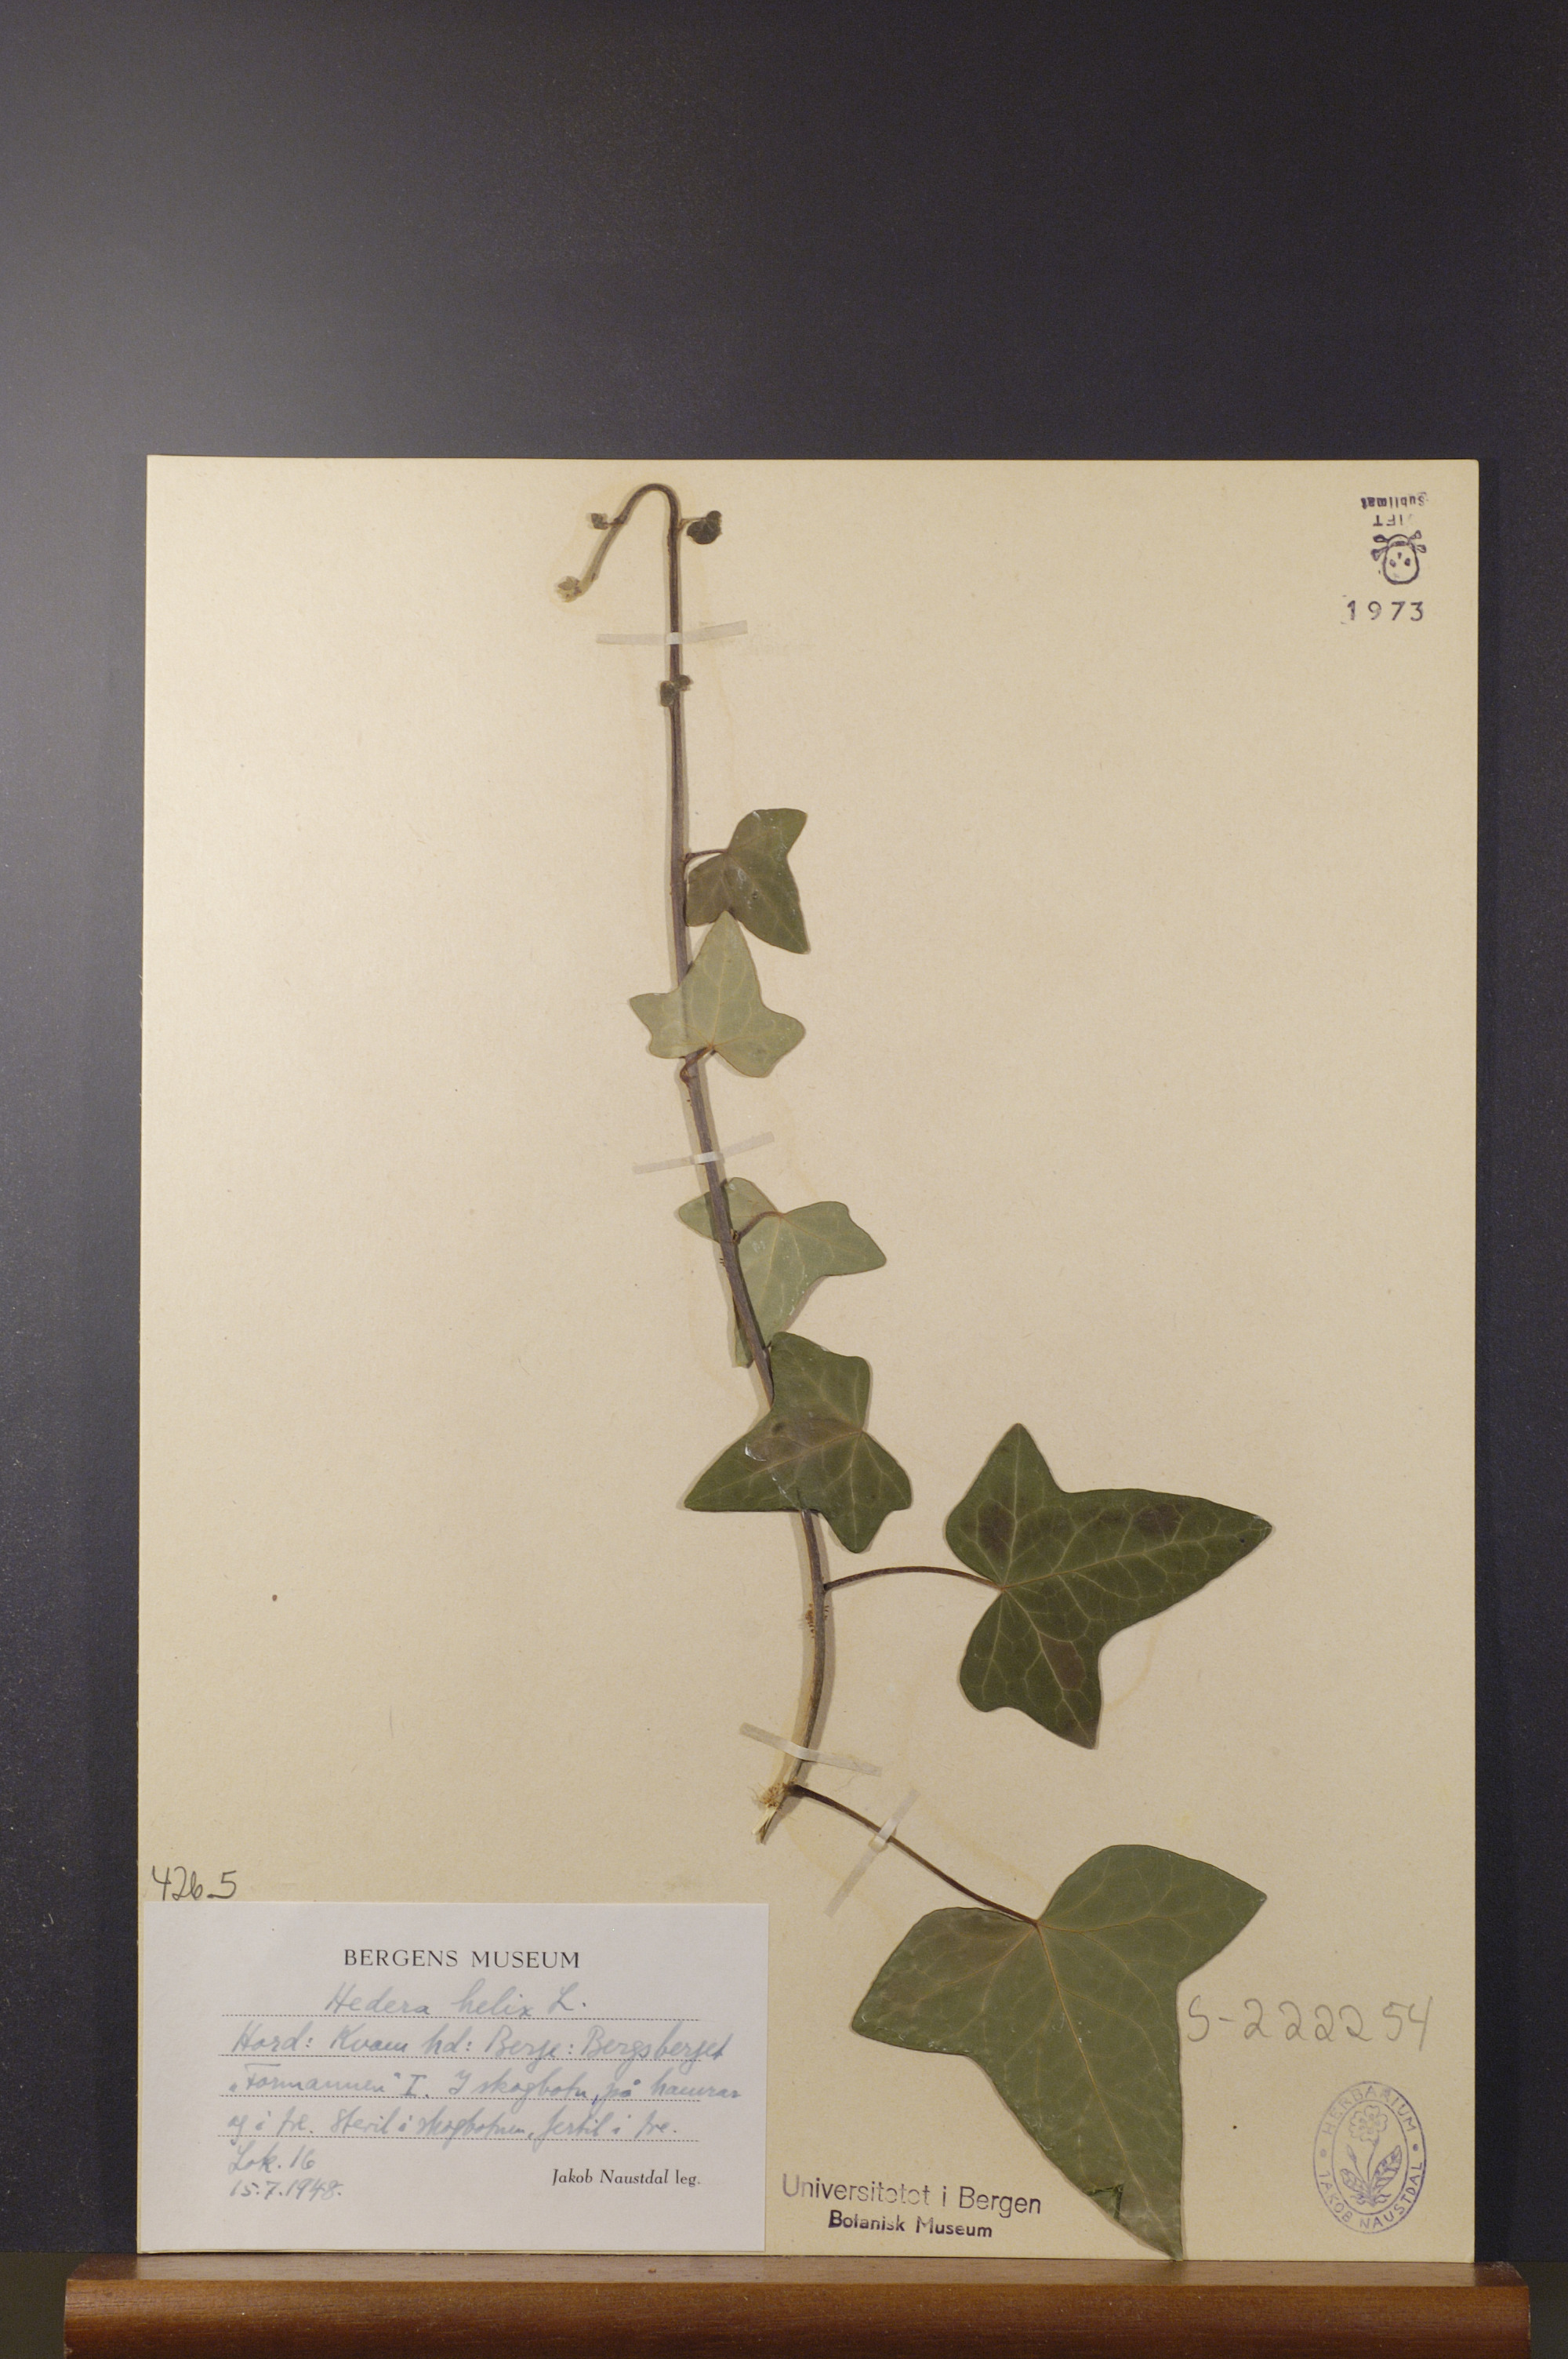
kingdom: Plantae
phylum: Tracheophyta
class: Magnoliopsida
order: Apiales
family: Araliaceae
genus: Hedera
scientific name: Hedera helix
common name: Ivy
